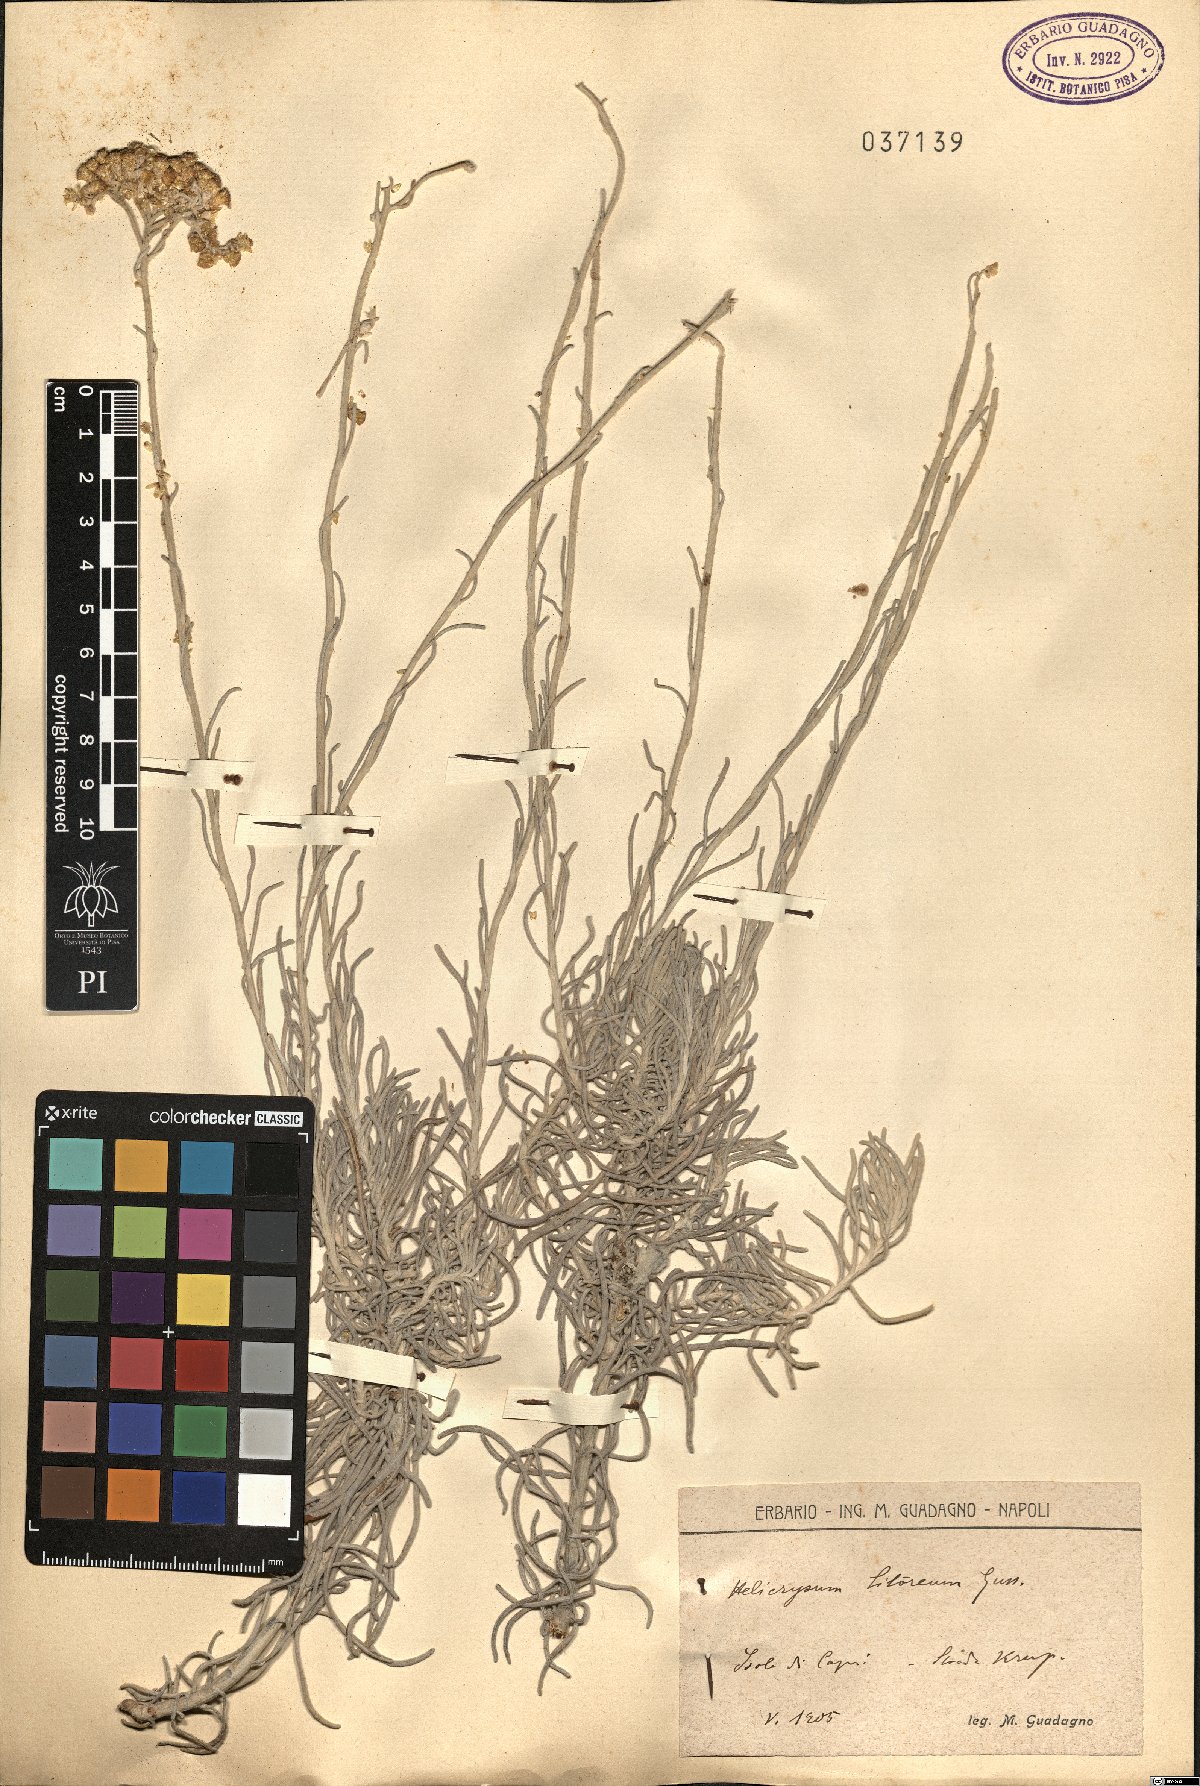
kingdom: Plantae
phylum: Tracheophyta
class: Magnoliopsida
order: Asterales
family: Asteraceae
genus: Helichrysum
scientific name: Helichrysum litoreum
